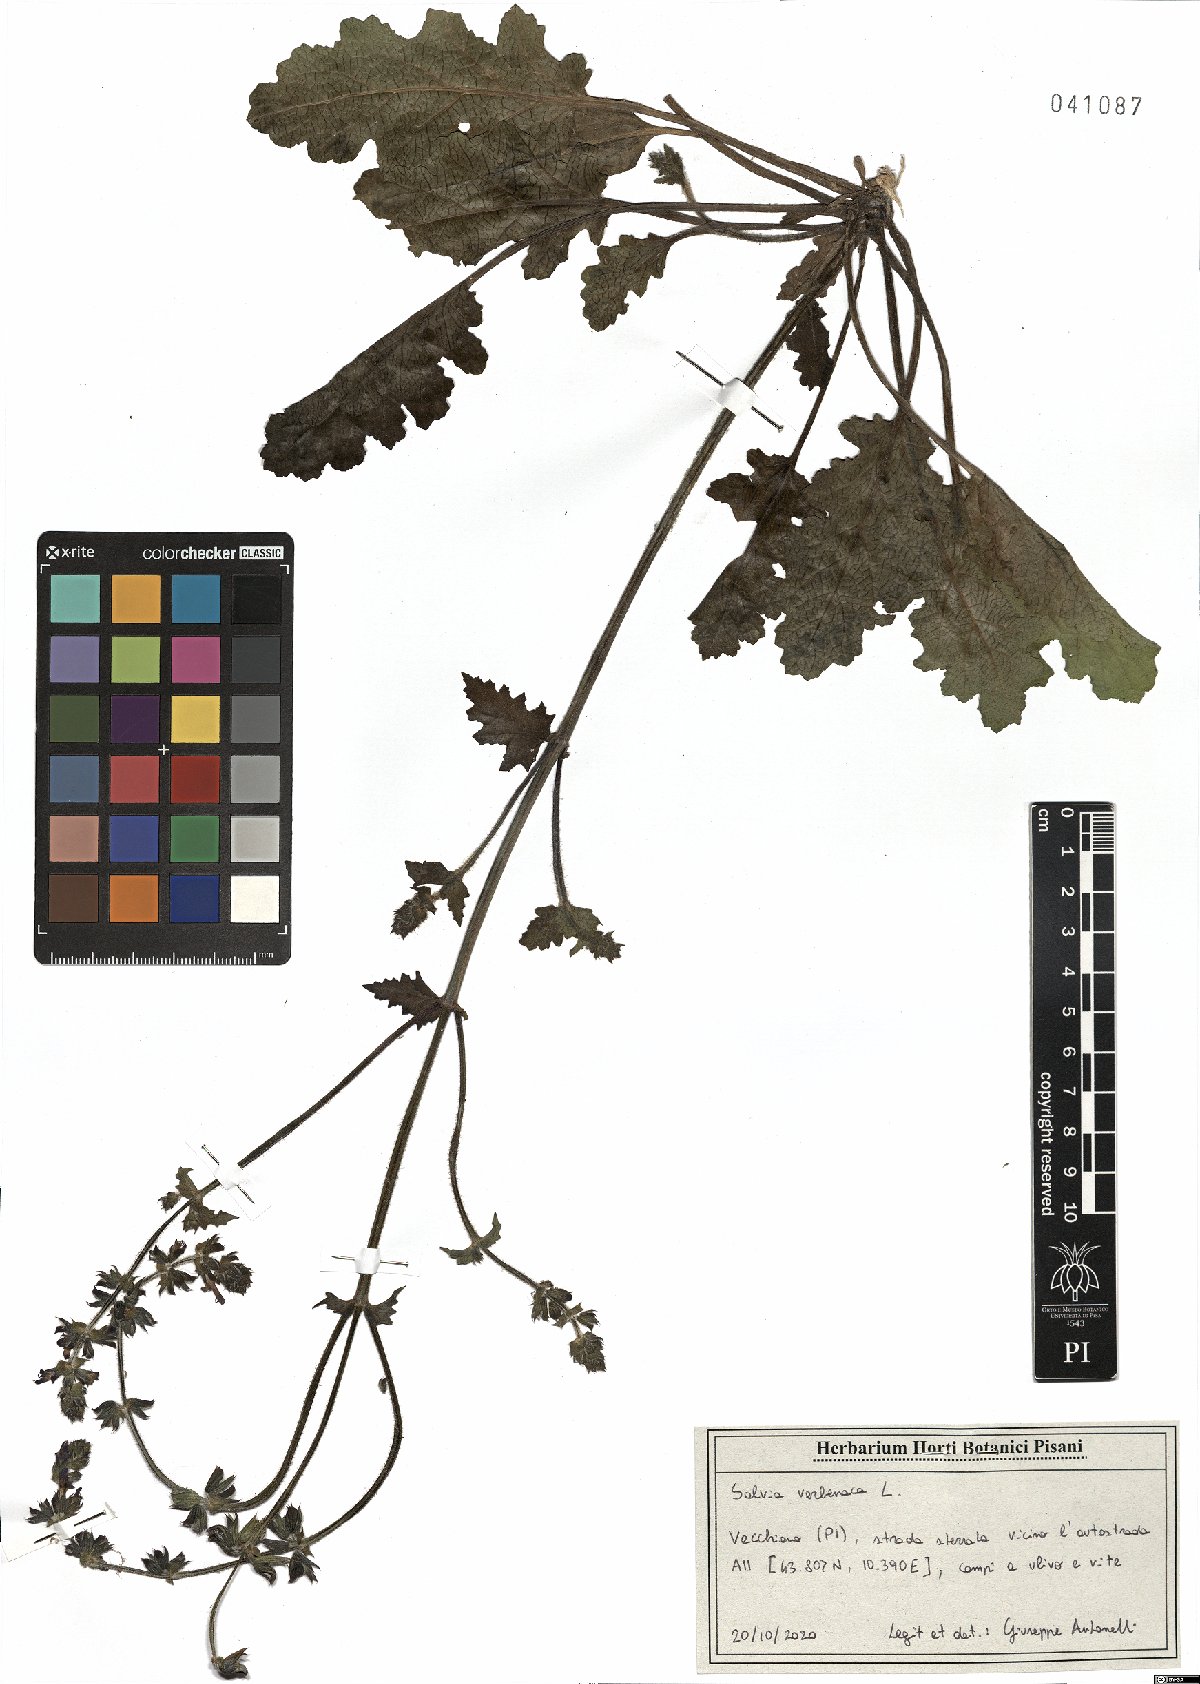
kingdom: Plantae
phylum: Tracheophyta
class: Magnoliopsida
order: Lamiales
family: Lamiaceae
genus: Salvia
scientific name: Salvia verbenaca
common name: Wild clary
